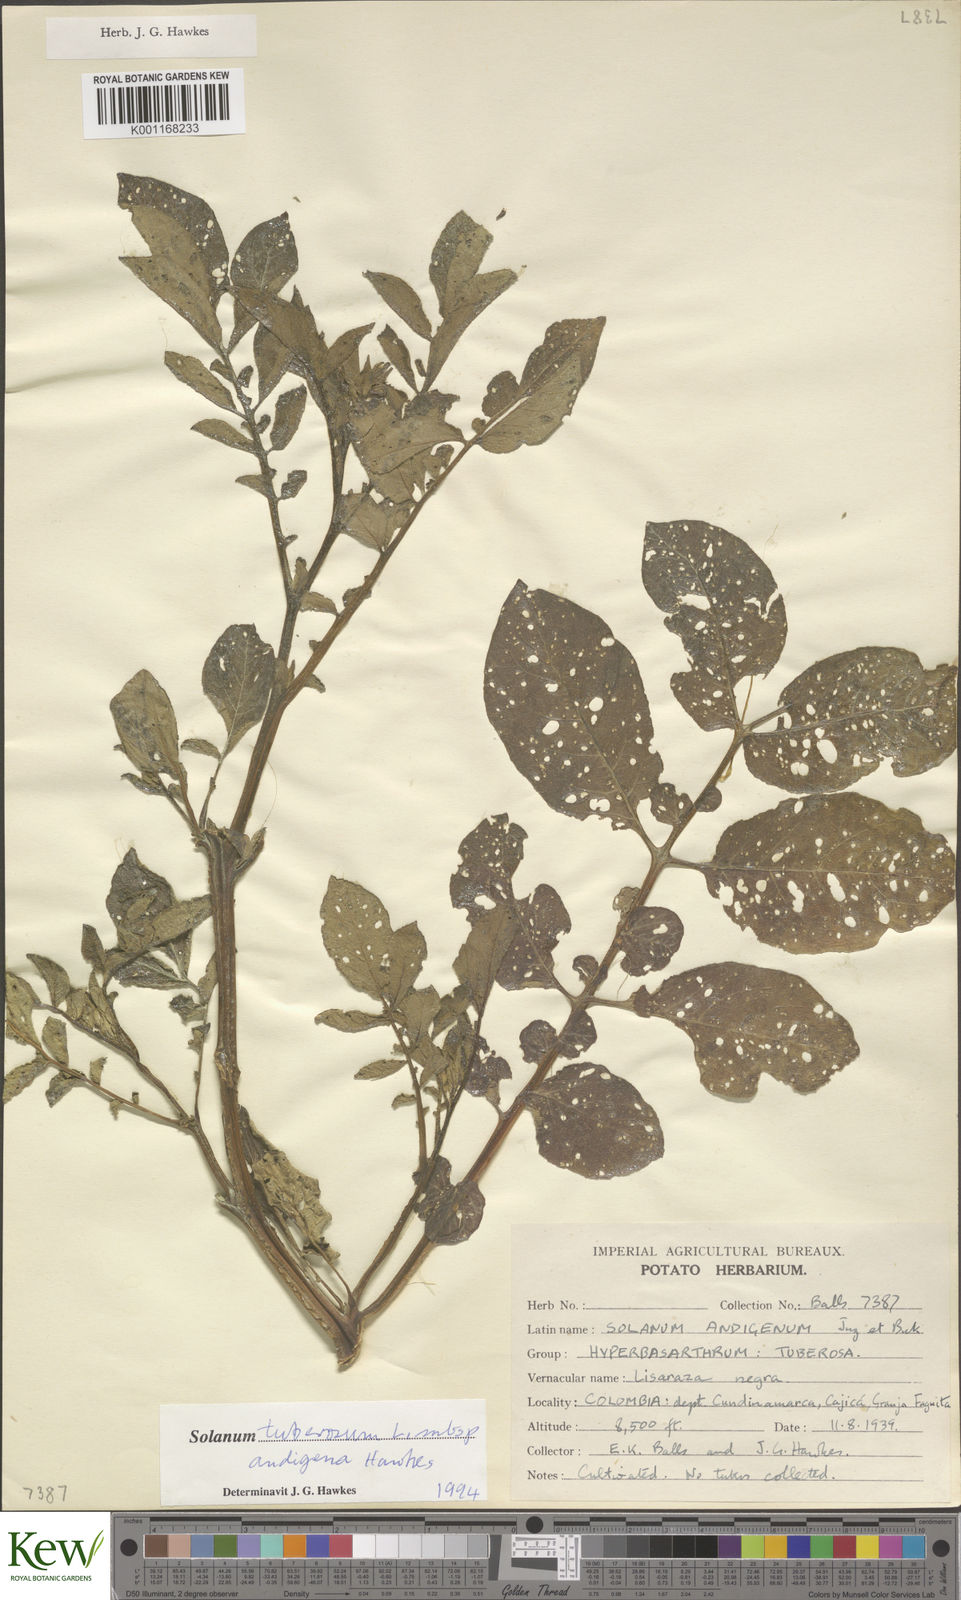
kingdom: Plantae
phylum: Tracheophyta
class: Magnoliopsida
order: Solanales
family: Solanaceae
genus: Solanum
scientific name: Solanum tuberosum
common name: Potato
